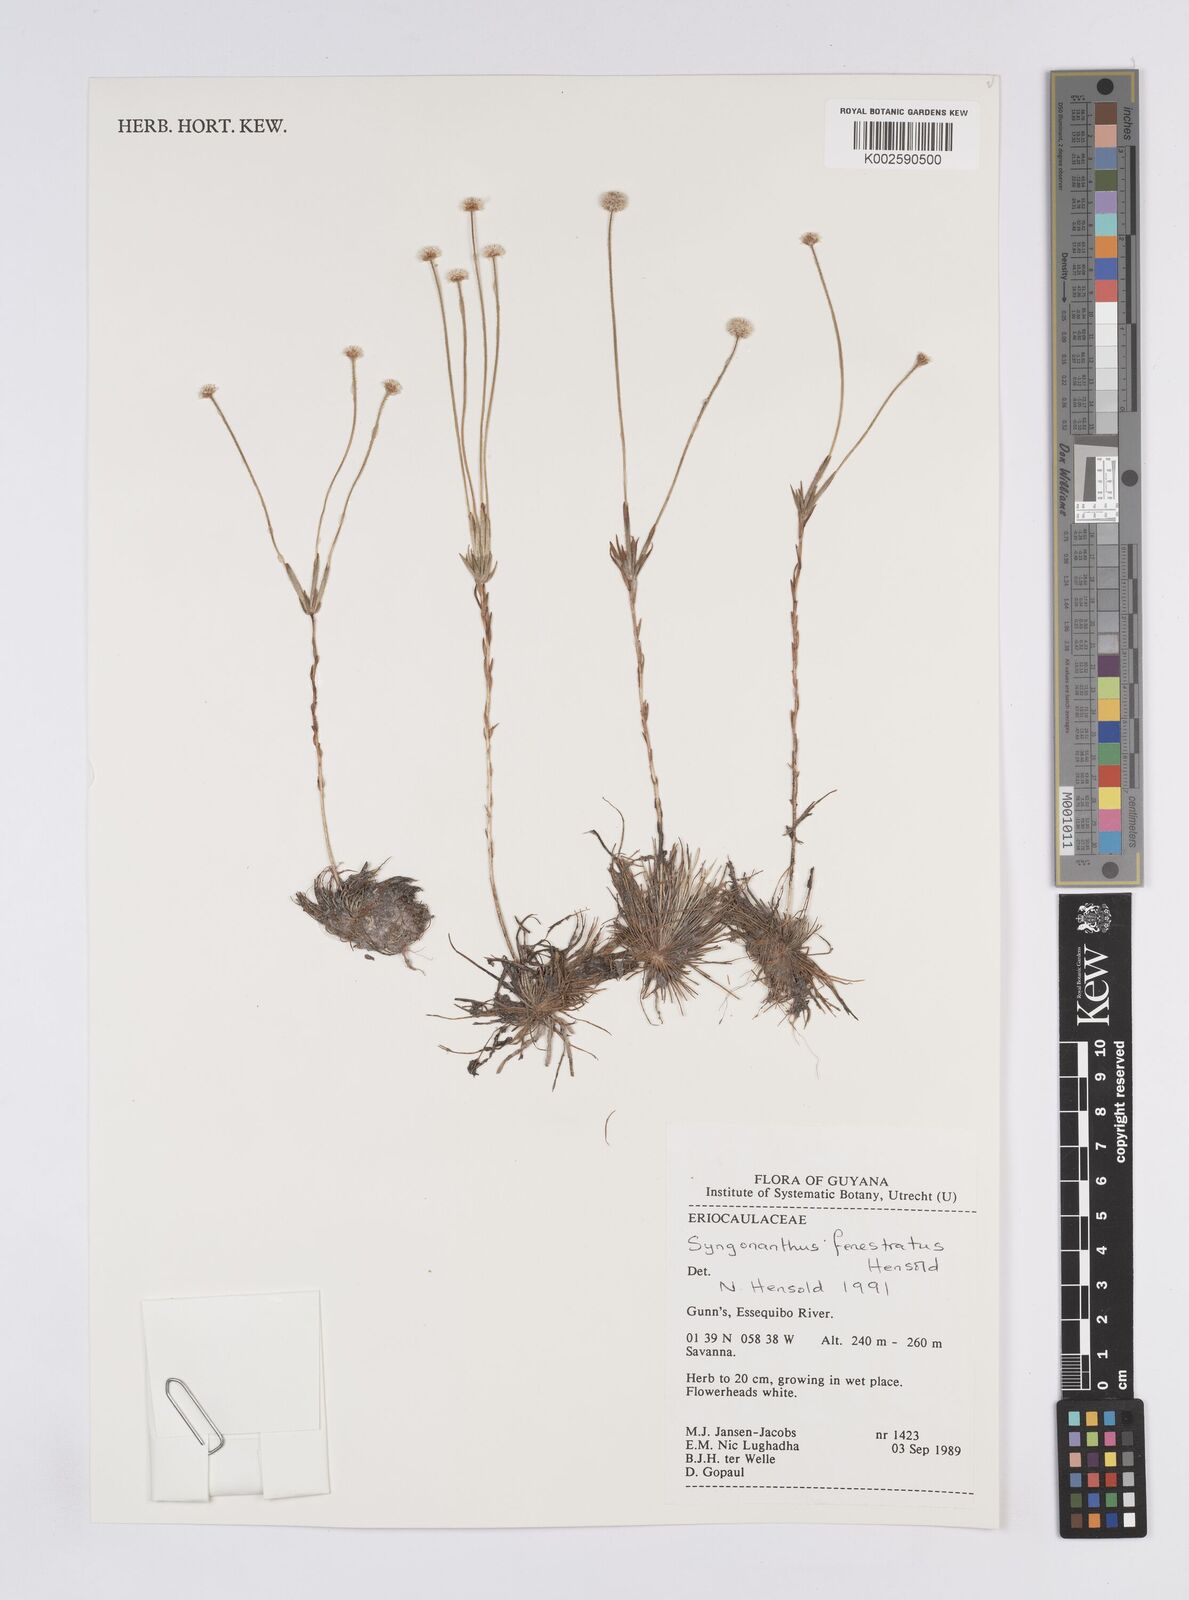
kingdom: Plantae
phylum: Tracheophyta
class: Liliopsida
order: Poales
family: Eriocaulaceae
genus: Syngonanthus
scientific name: Syngonanthus fenestratus
